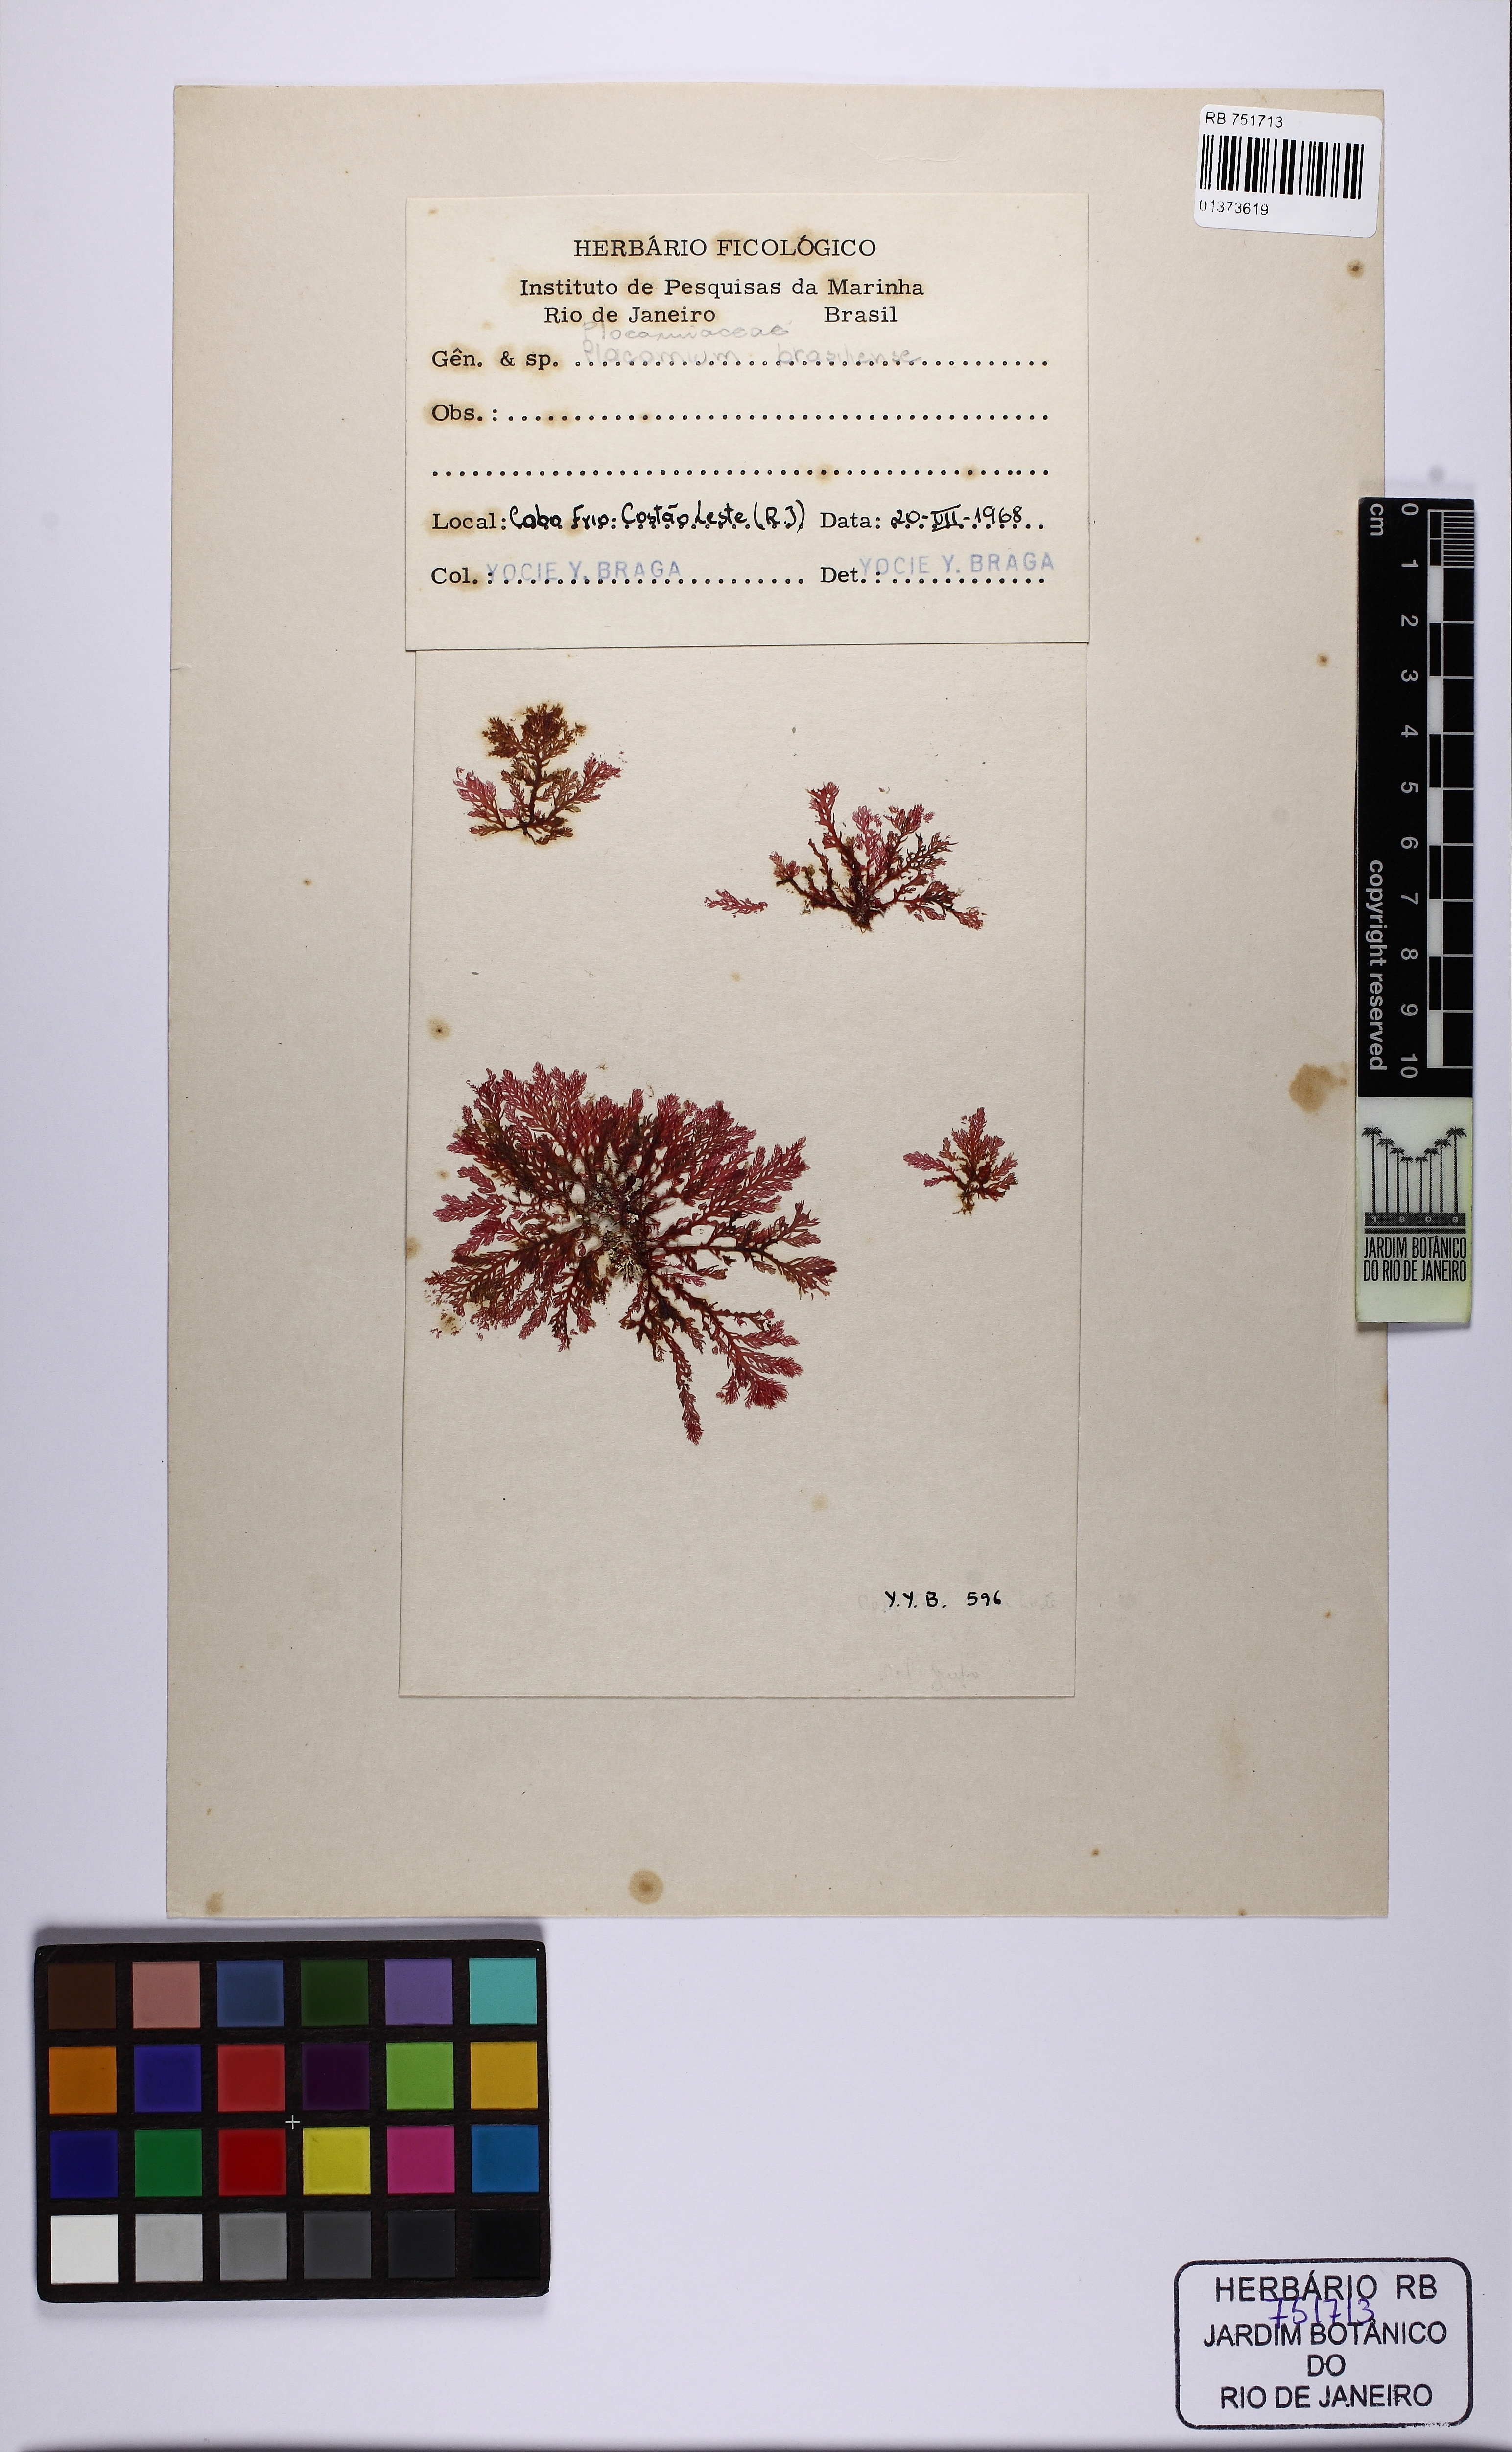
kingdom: Plantae
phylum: Rhodophyta
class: Florideophyceae
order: Plocamiales
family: Plocamiaceae
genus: Plocamium
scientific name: Plocamium brasiliense
